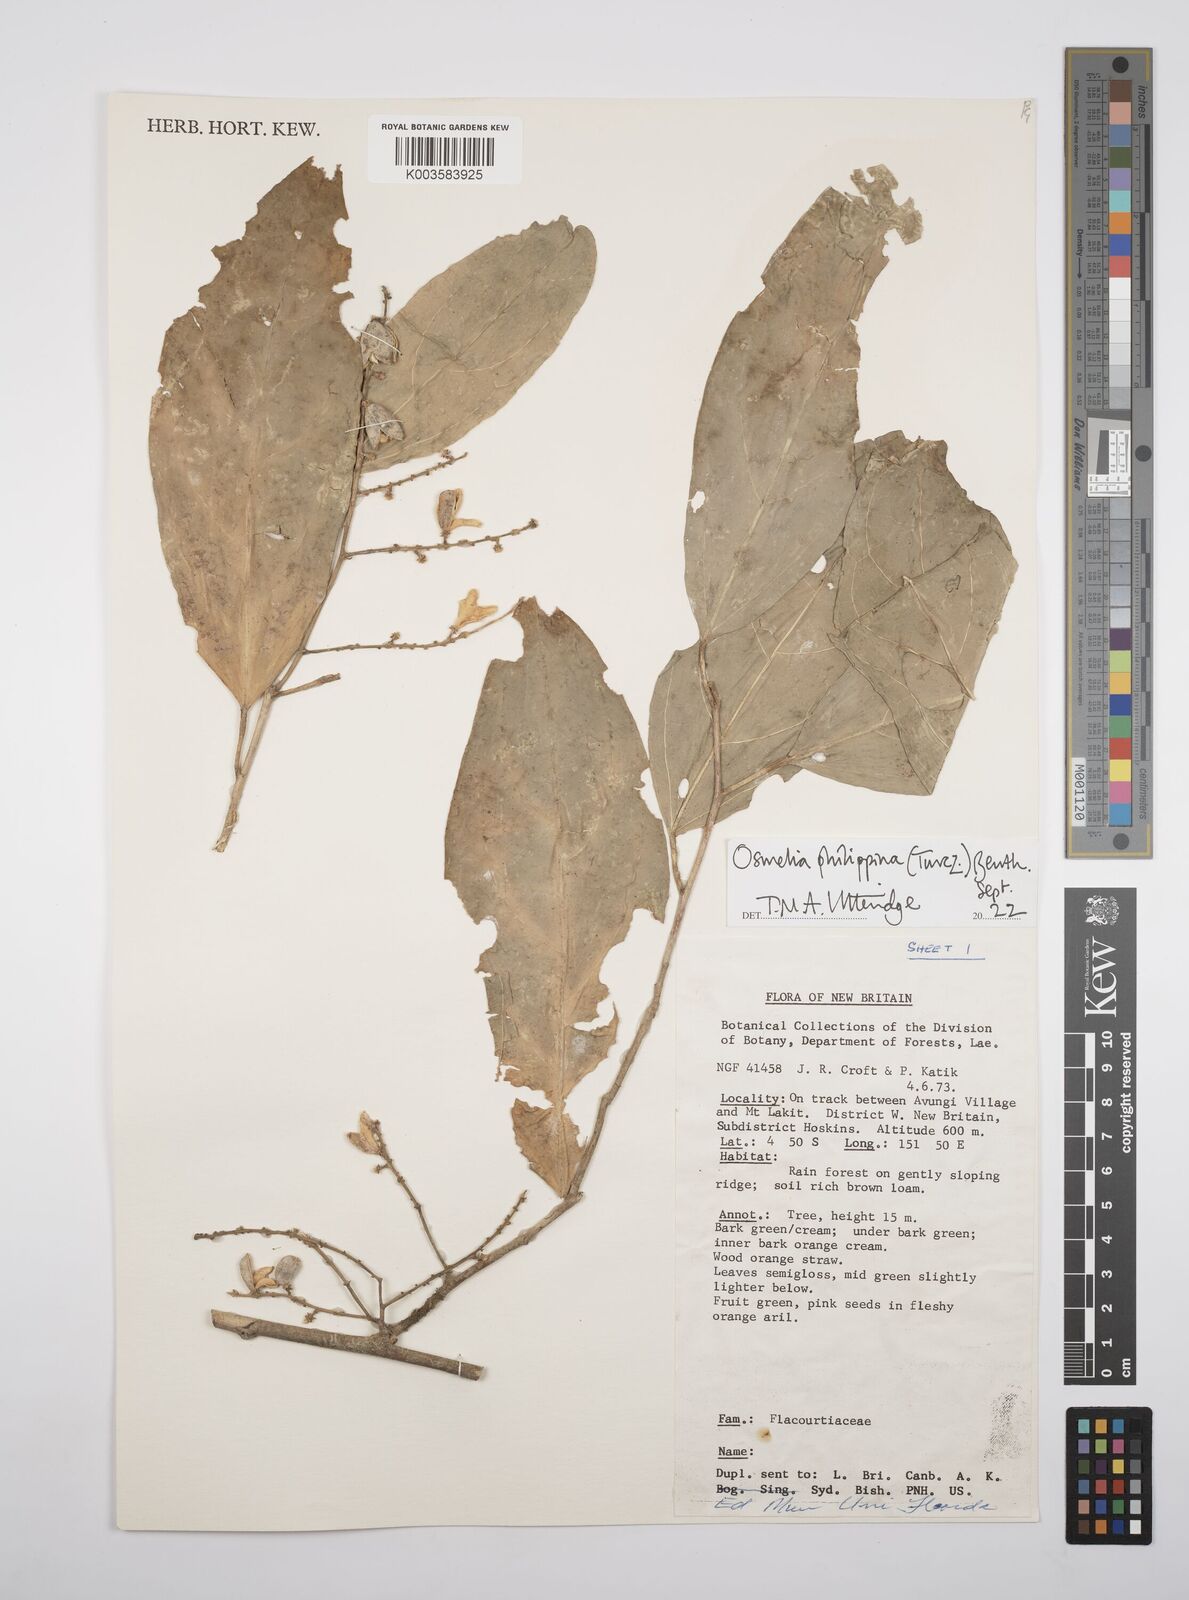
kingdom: Plantae
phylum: Tracheophyta
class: Magnoliopsida
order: Malpighiales
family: Salicaceae
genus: Osmelia
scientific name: Osmelia
